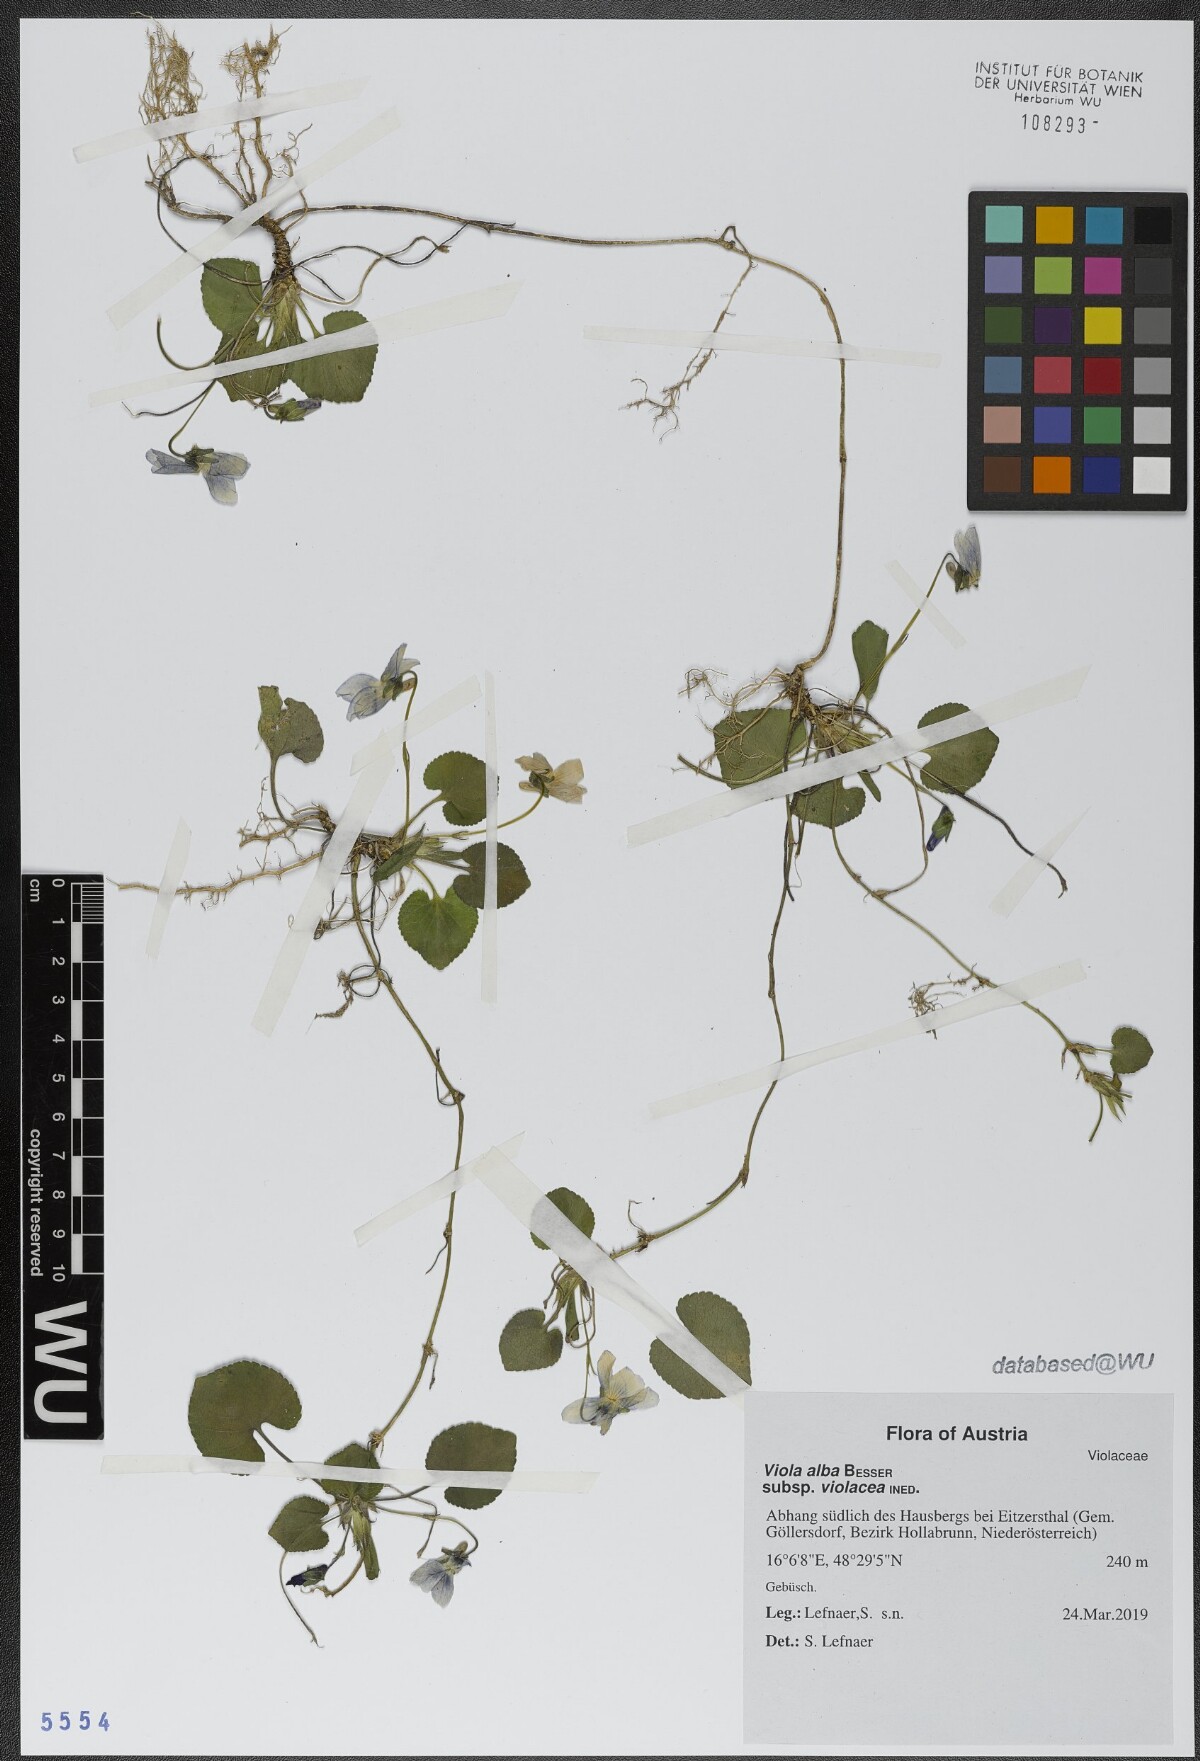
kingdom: Plantae
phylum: Tracheophyta
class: Magnoliopsida
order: Malpighiales
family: Violaceae
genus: Viola
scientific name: Viola alba
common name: White violet
